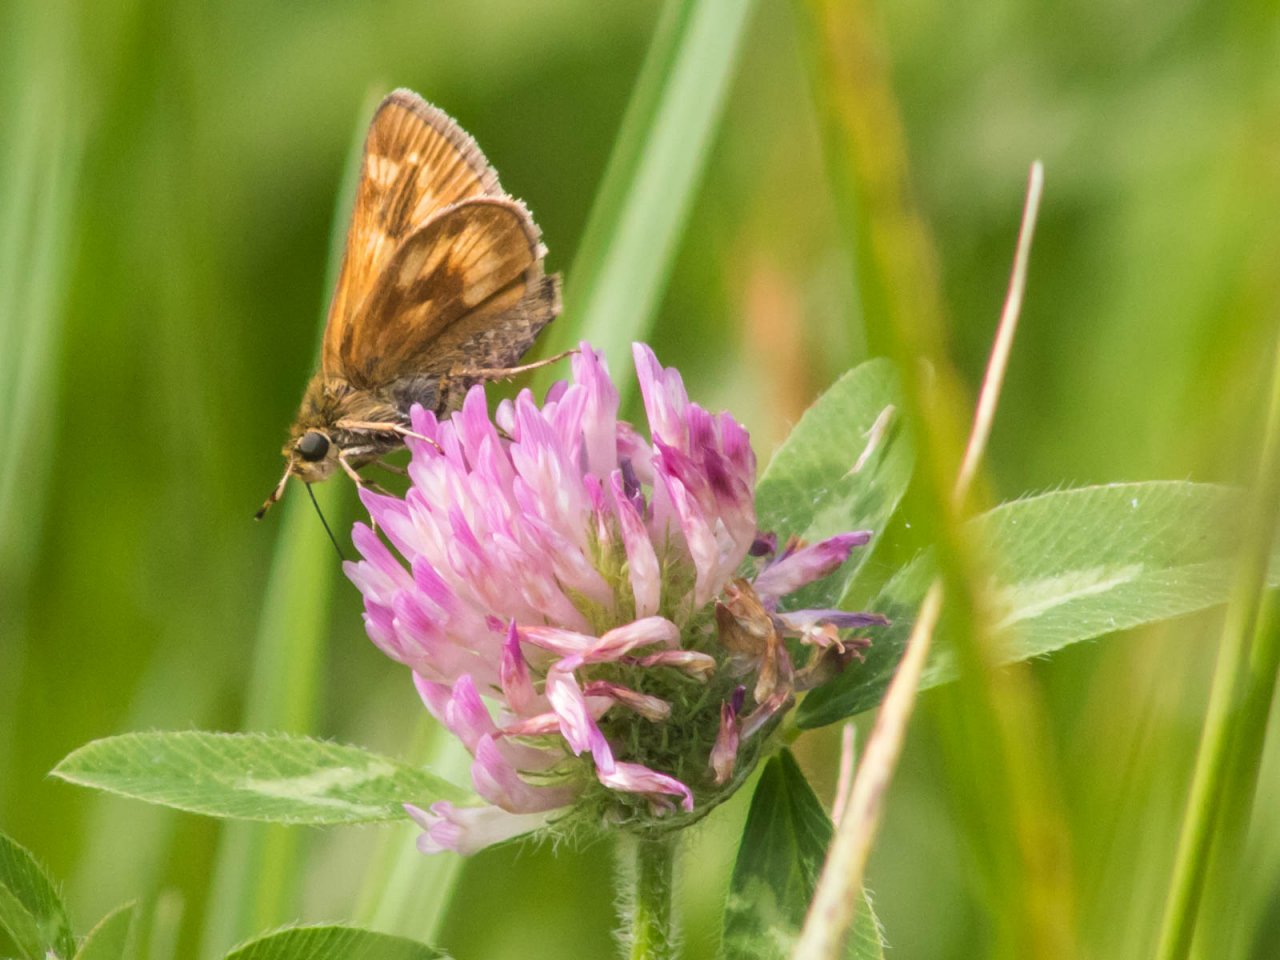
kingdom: Animalia
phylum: Arthropoda
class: Insecta
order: Lepidoptera
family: Hesperiidae
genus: Polites
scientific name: Polites
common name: Long Dash Skipper
